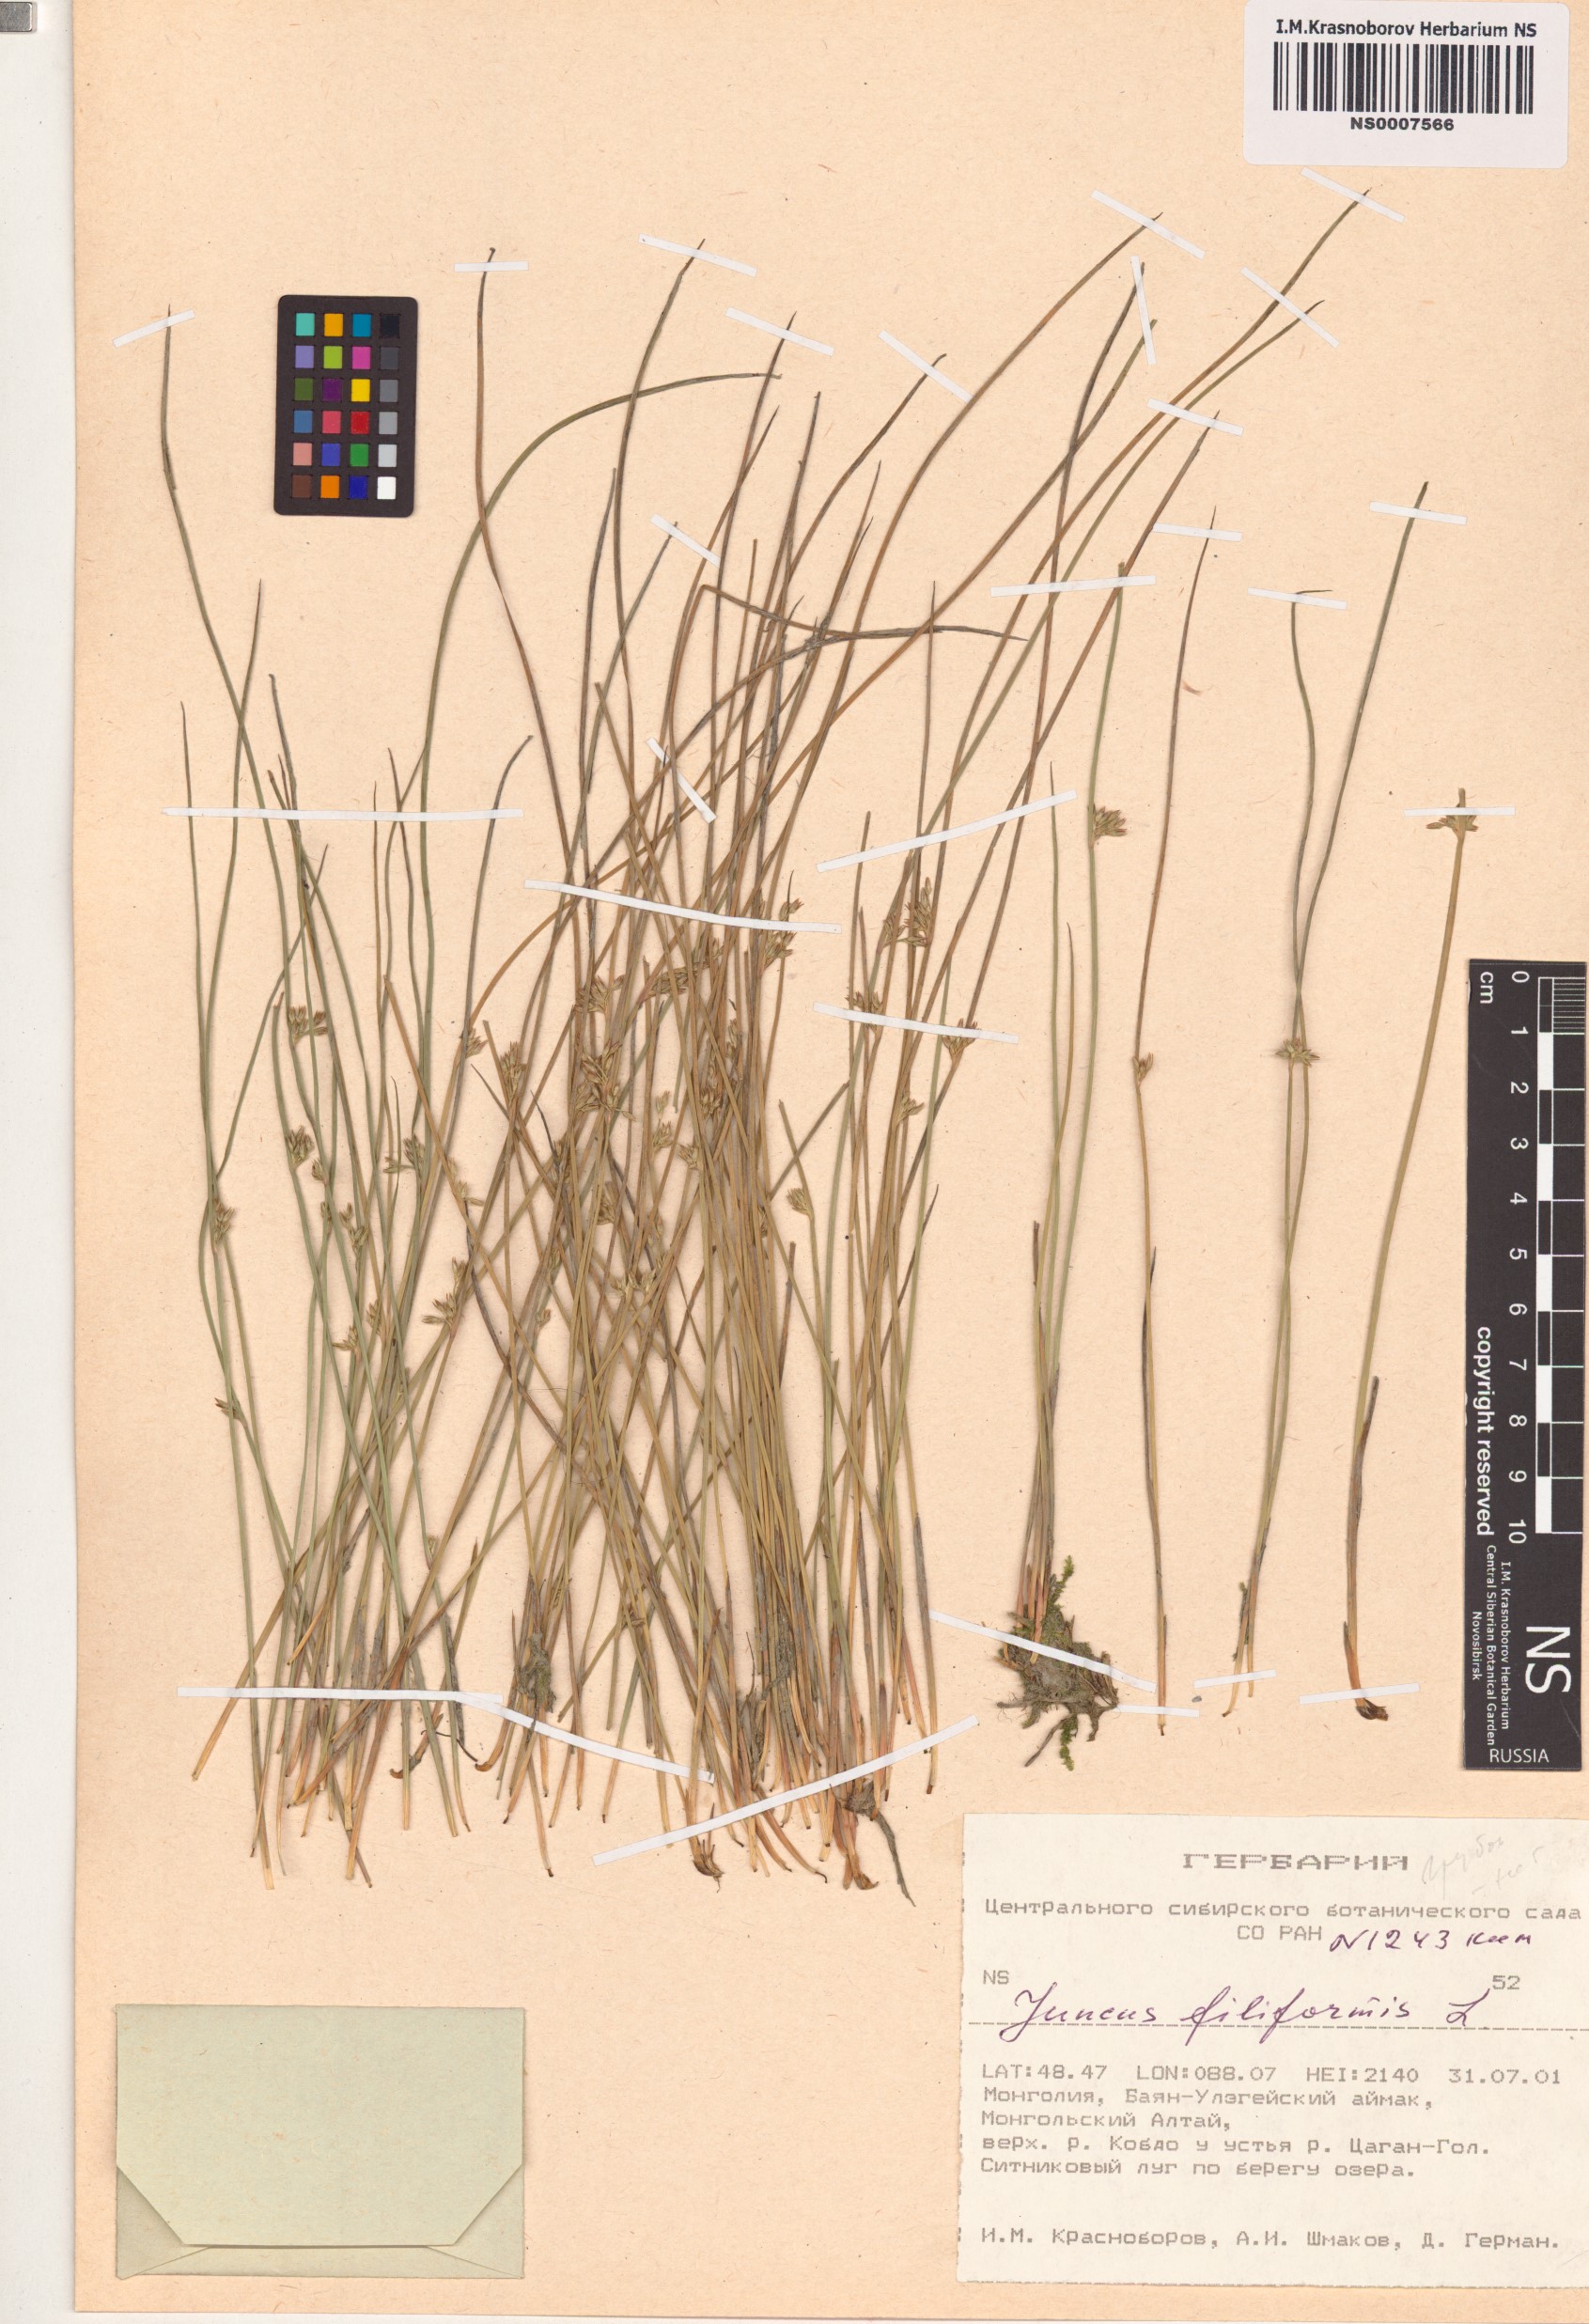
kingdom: Plantae
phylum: Tracheophyta
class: Liliopsida
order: Poales
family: Juncaceae
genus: Juncus
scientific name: Juncus filiformis
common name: Thread rush
